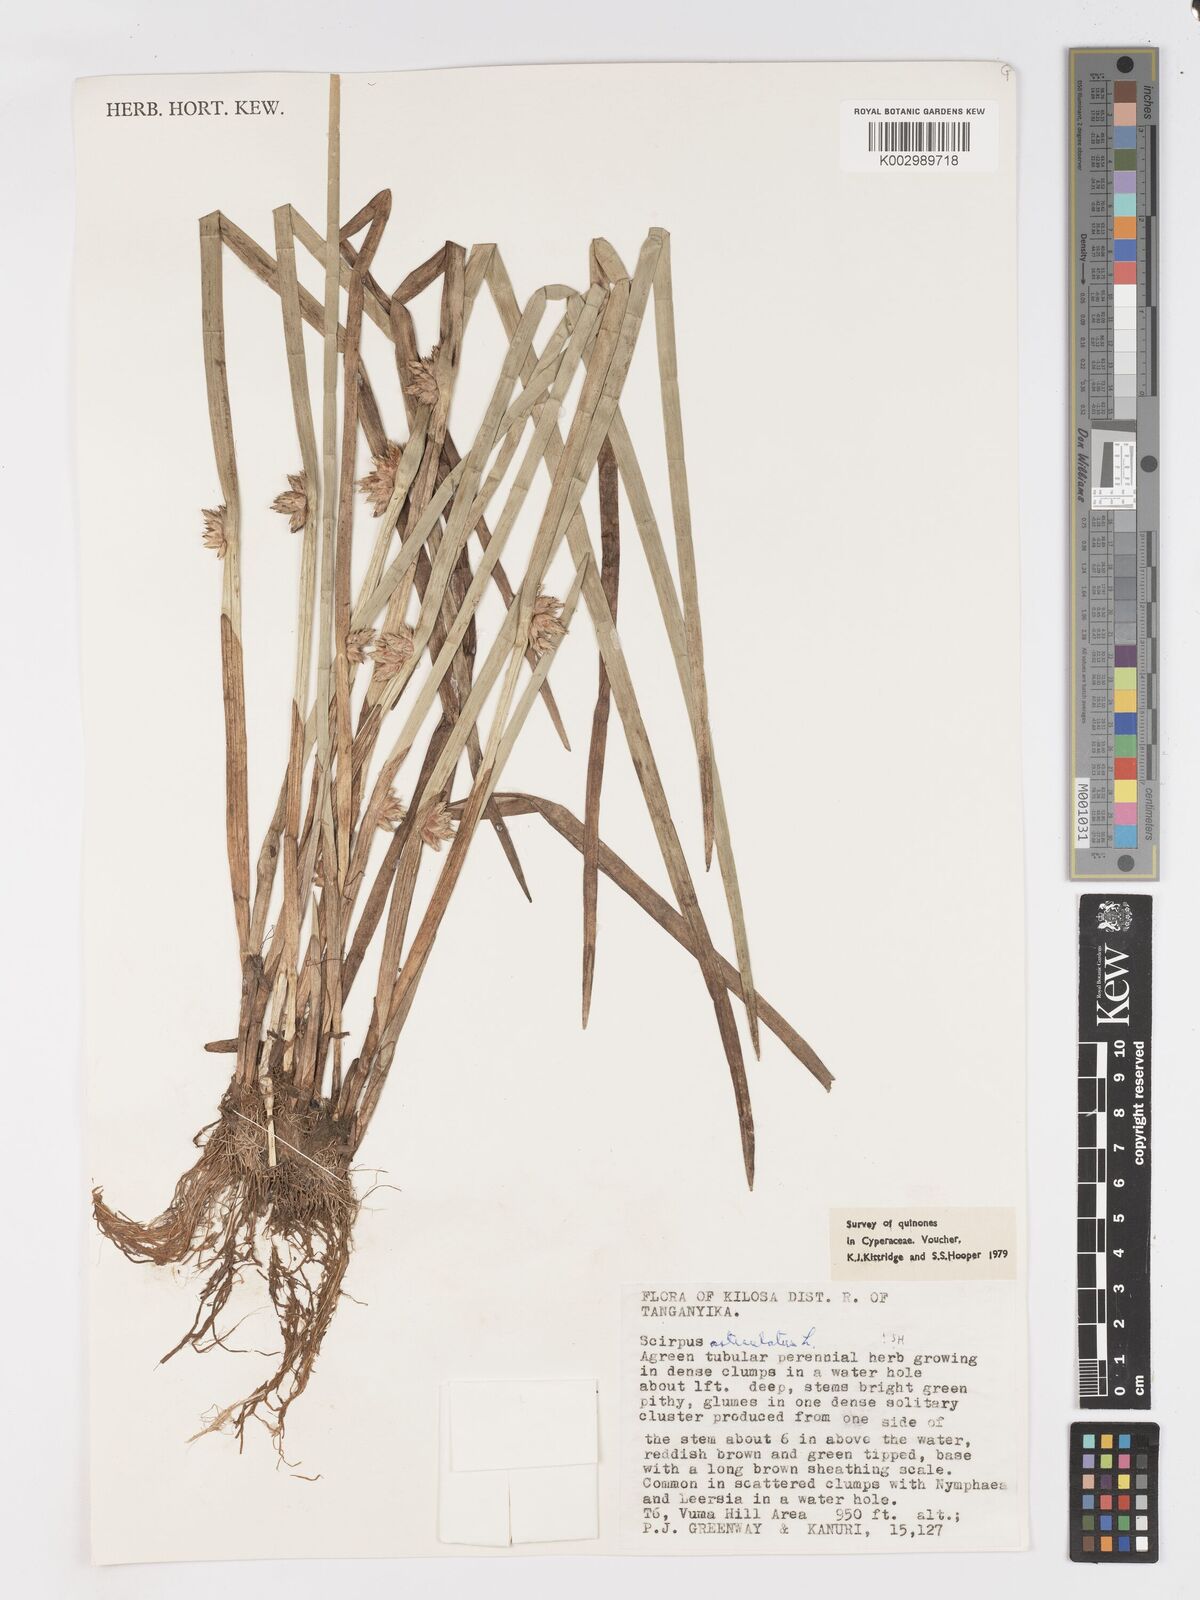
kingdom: Plantae
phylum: Tracheophyta
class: Liliopsida
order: Poales
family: Cyperaceae
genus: Schoenoplectiella
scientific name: Schoenoplectiella articulata
